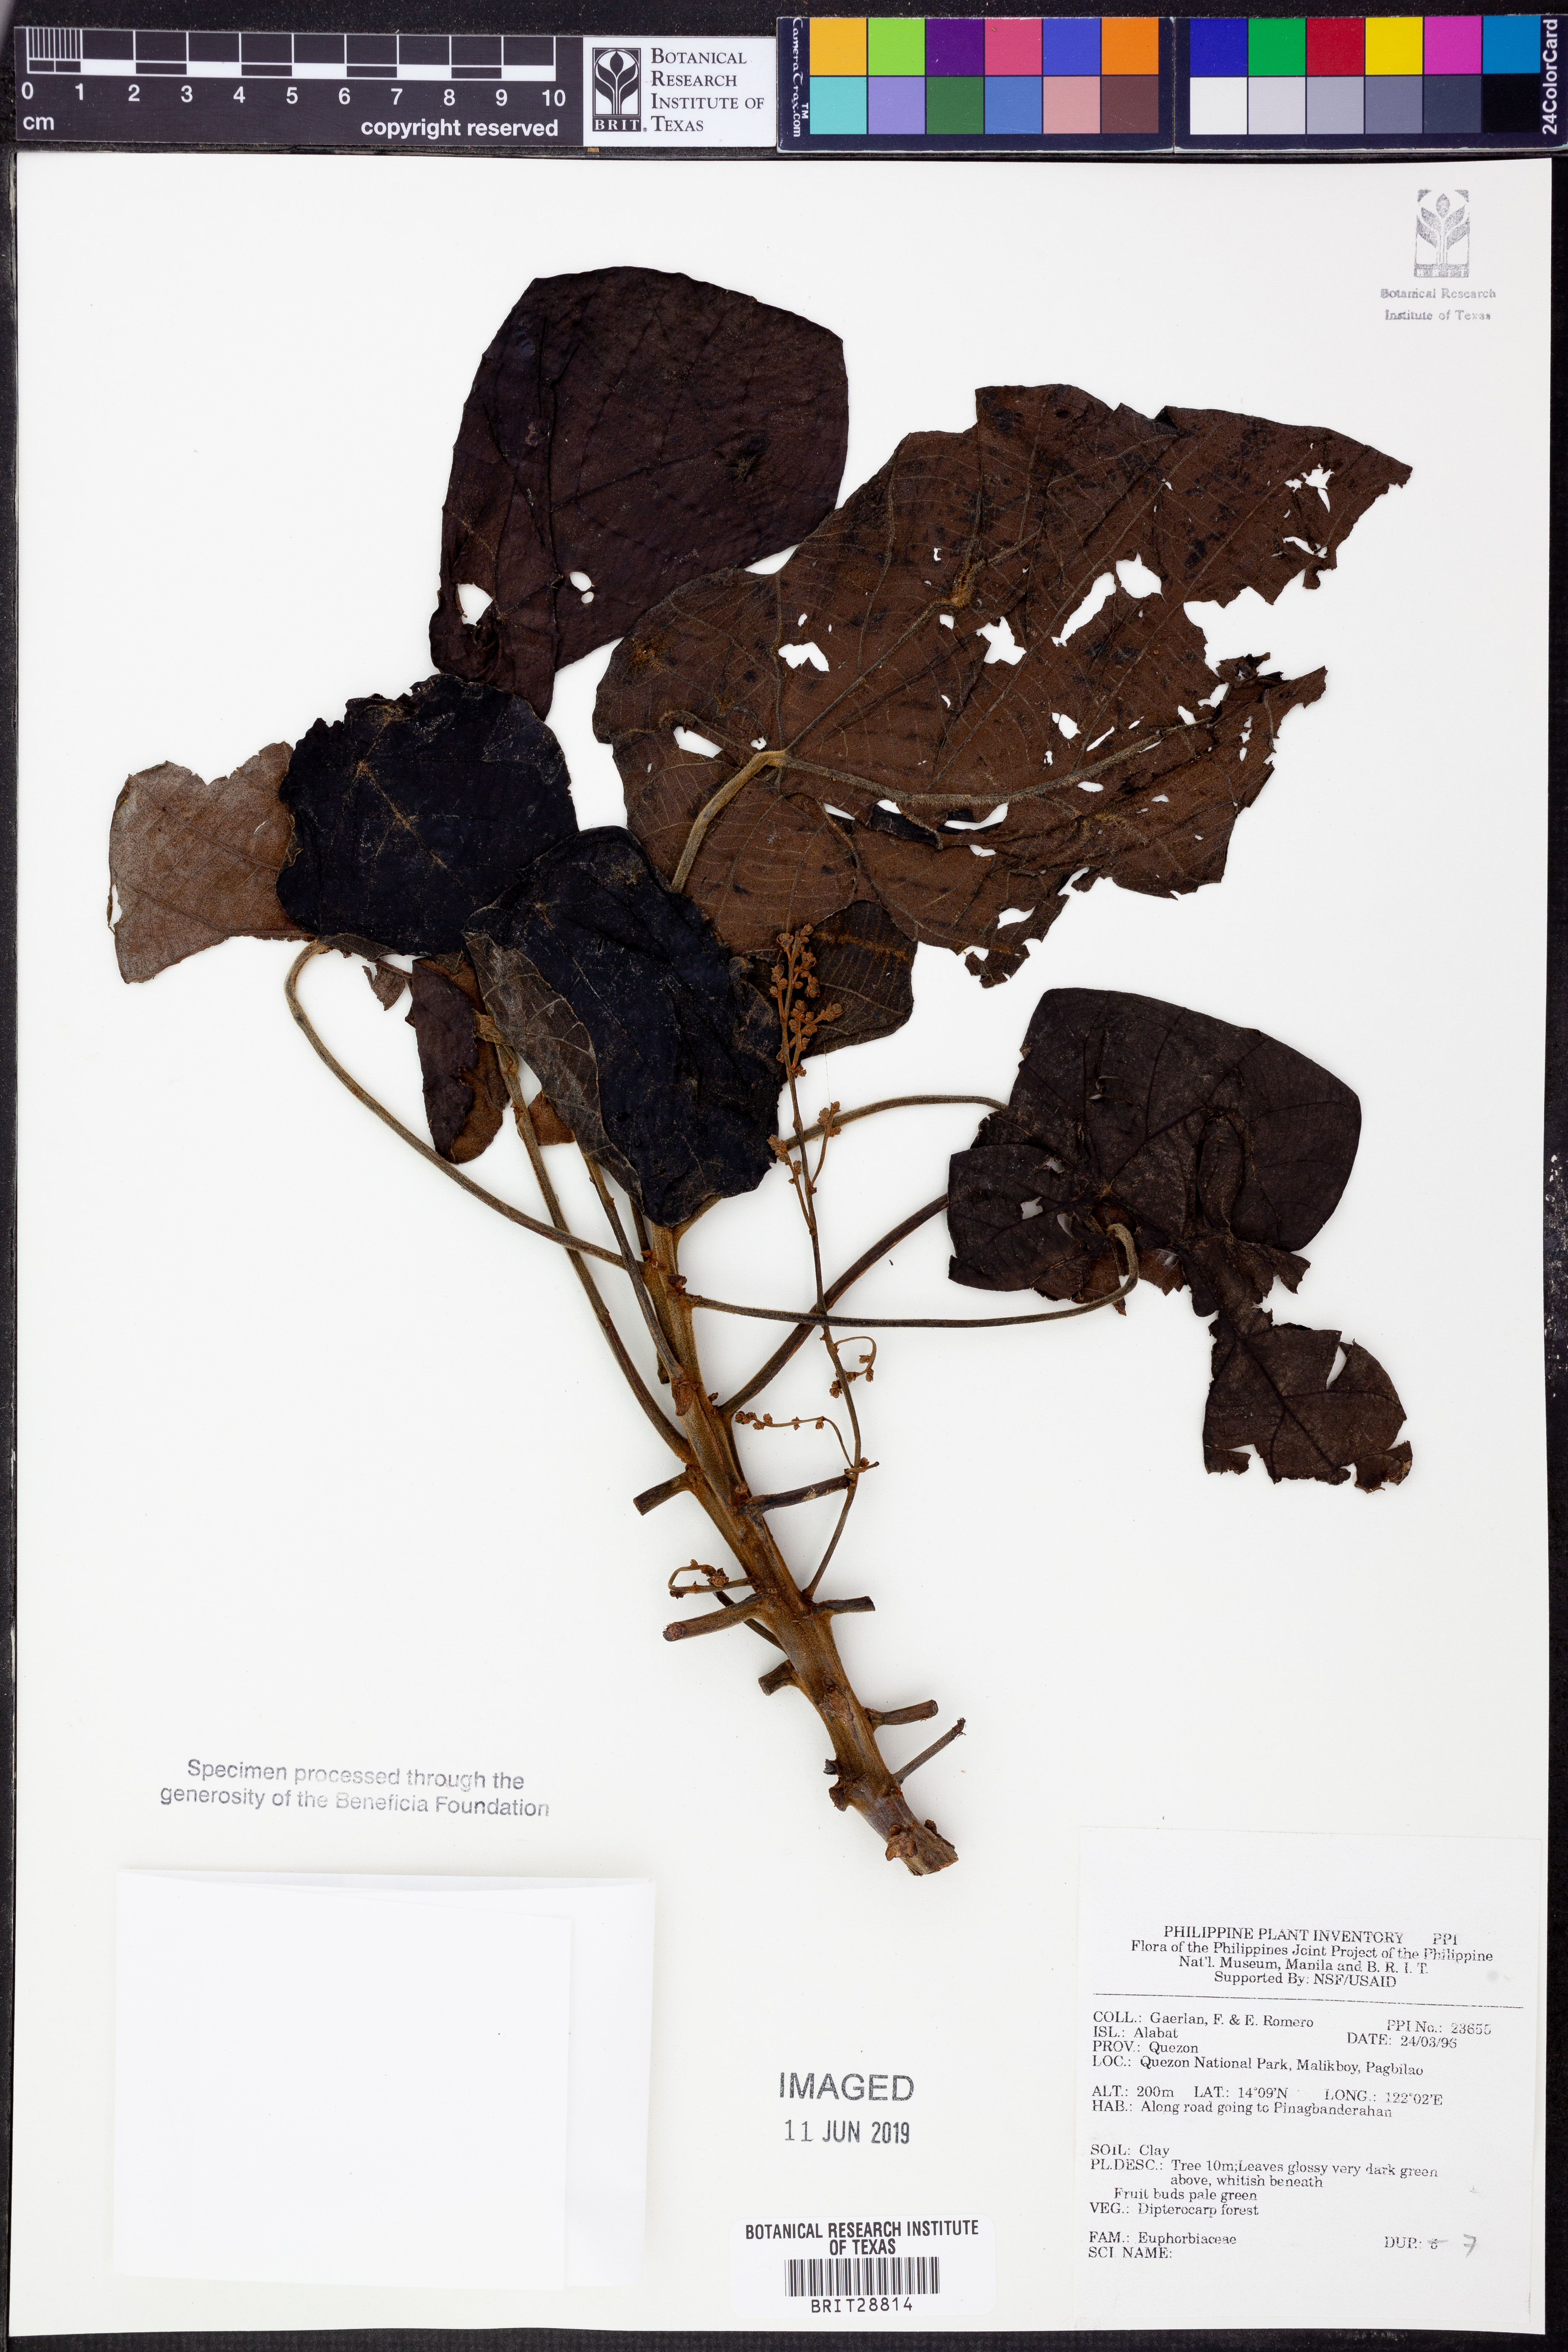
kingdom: Plantae
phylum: Tracheophyta
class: Magnoliopsida
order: Malpighiales
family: Euphorbiaceae
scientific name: Euphorbiaceae
